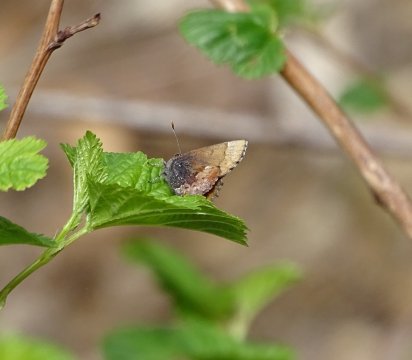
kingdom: Animalia
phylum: Arthropoda
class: Insecta
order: Lepidoptera
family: Lycaenidae
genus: Incisalia
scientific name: Incisalia henrici
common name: Henry's Elfin
